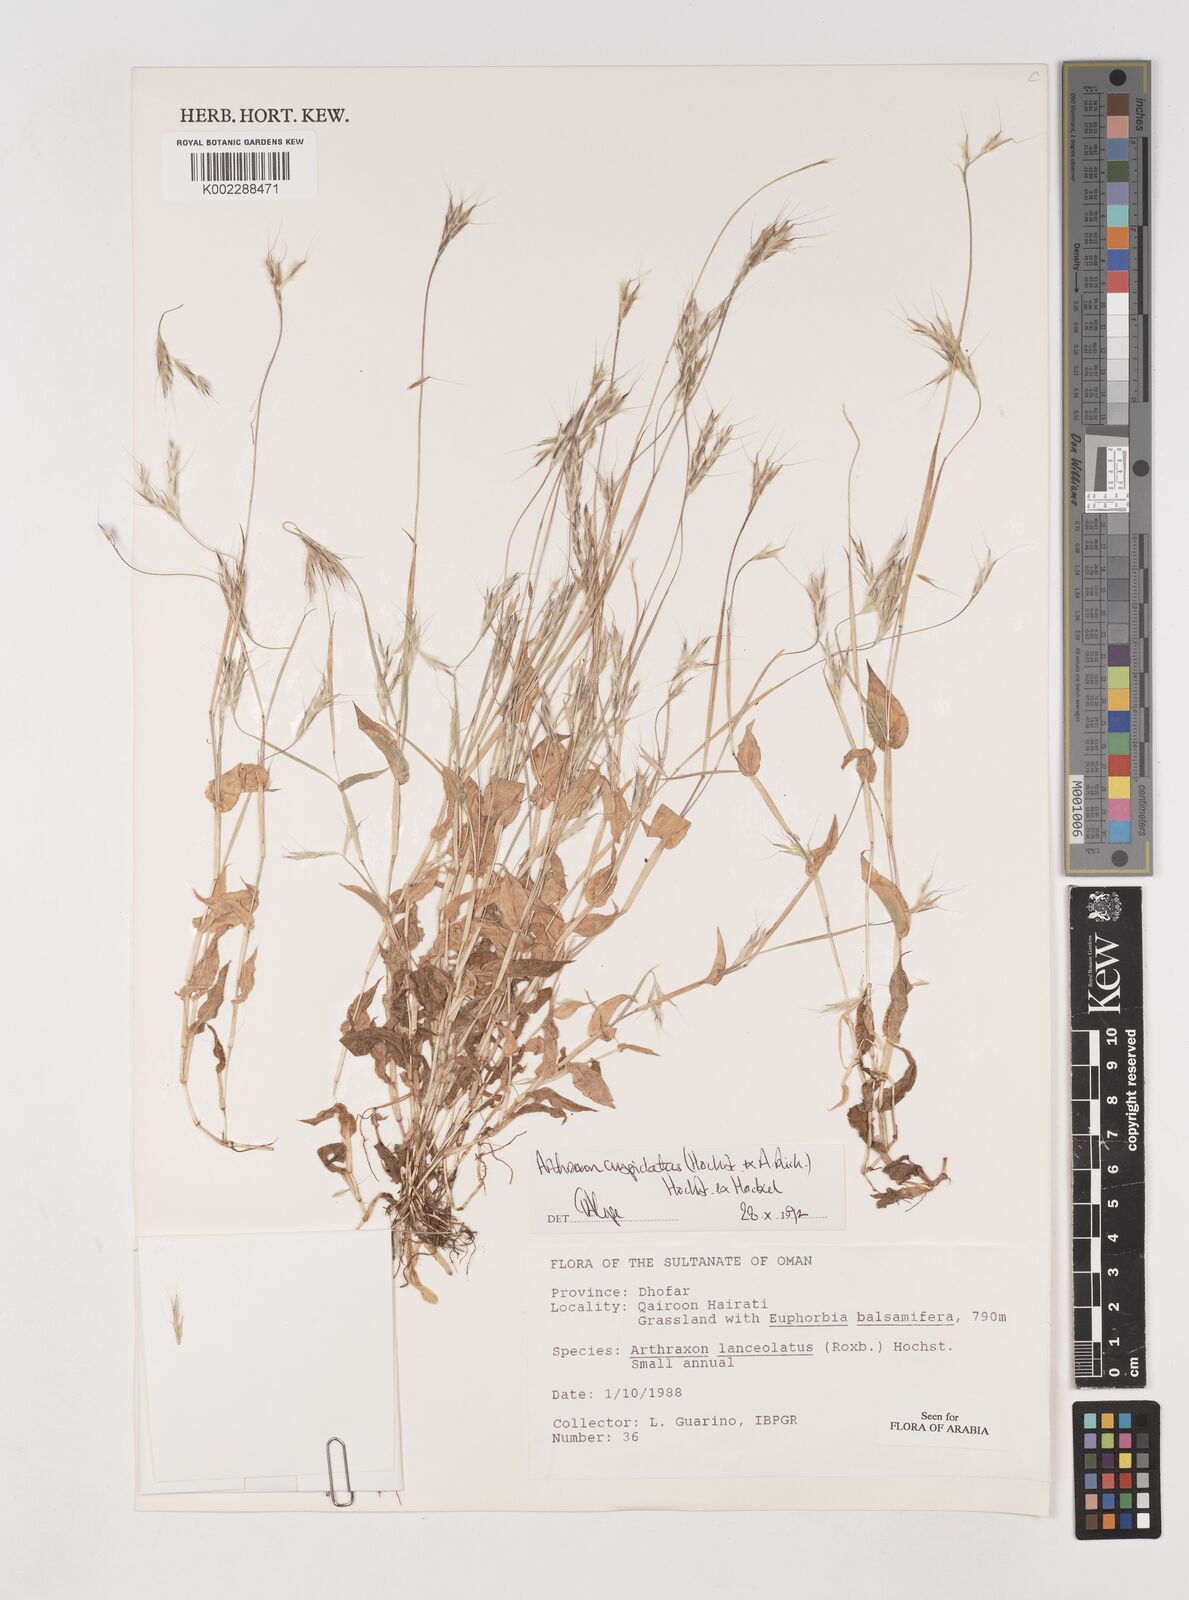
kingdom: Plantae
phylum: Tracheophyta
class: Liliopsida
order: Poales
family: Poaceae
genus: Arthraxon
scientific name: Arthraxon cuspidatus
